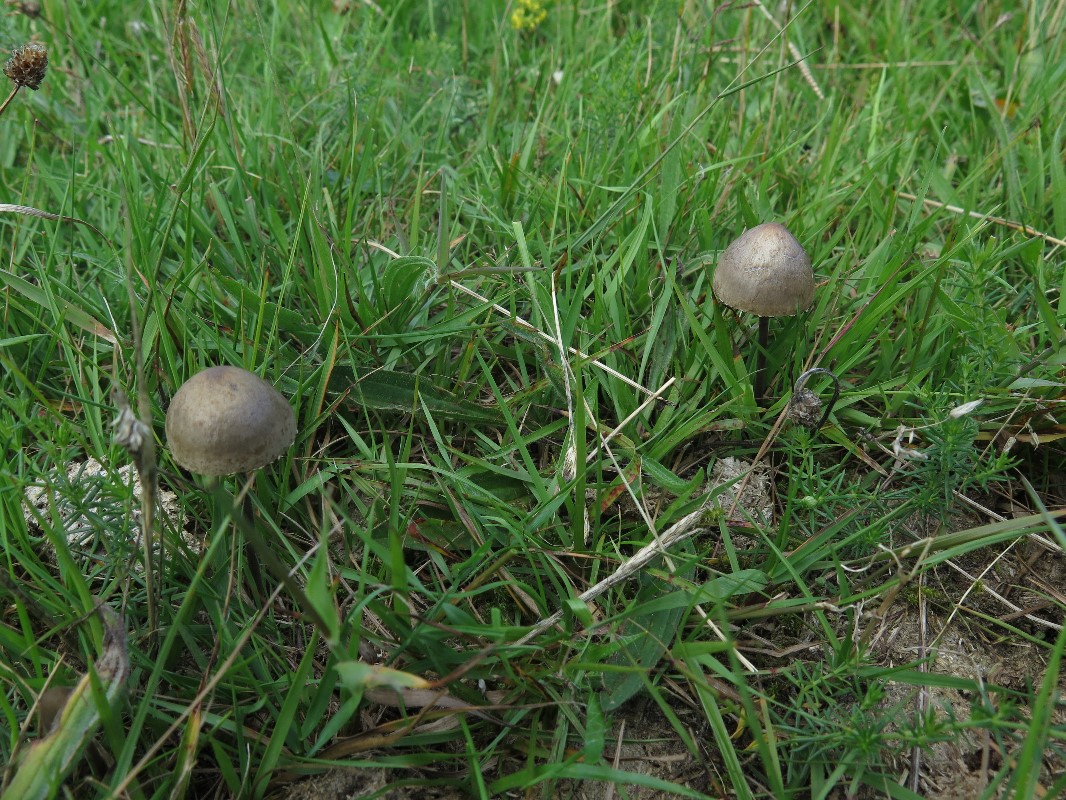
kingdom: Fungi
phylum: Basidiomycota
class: Agaricomycetes
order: Agaricales
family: Bolbitiaceae
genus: Panaeolus
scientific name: Panaeolus papilionaceus
